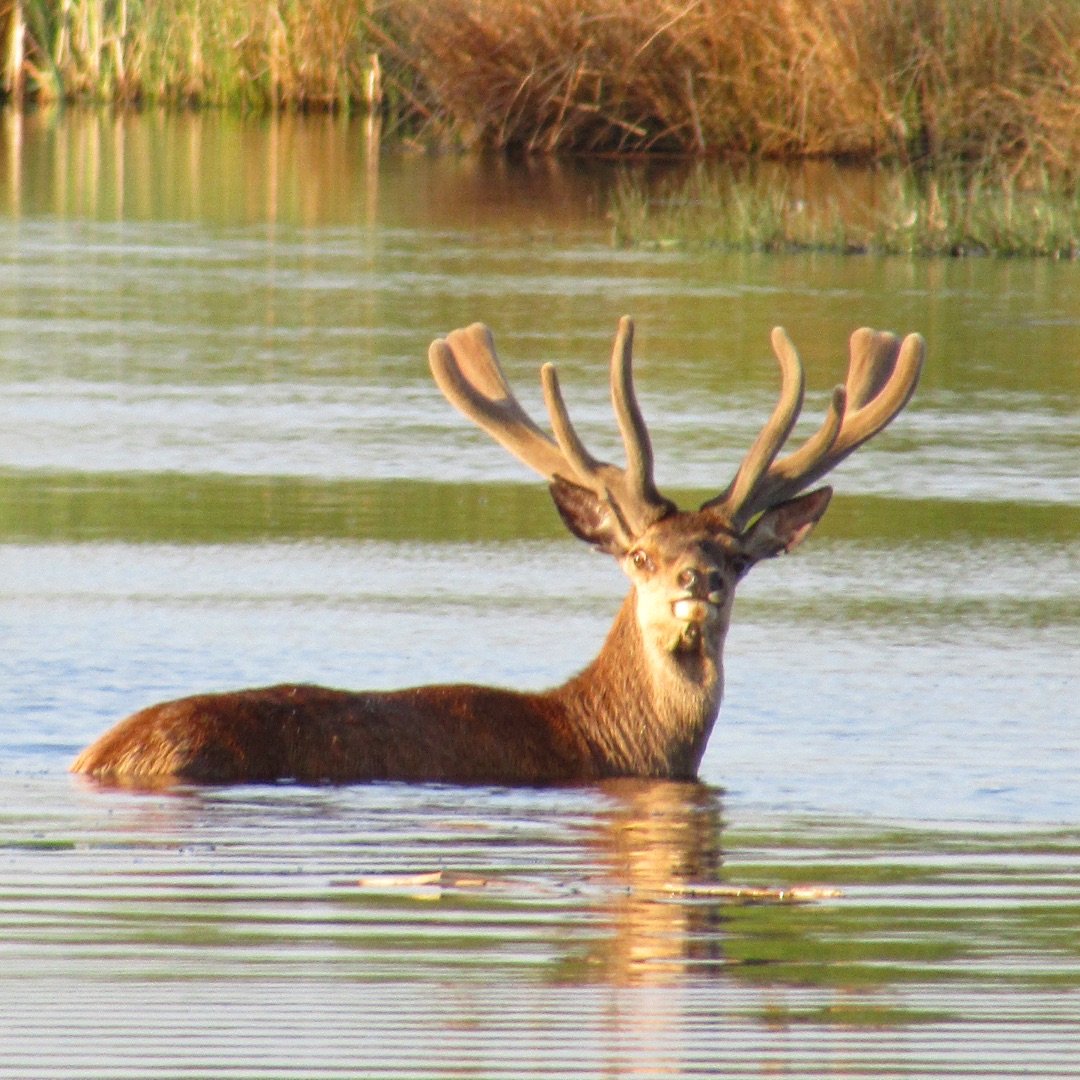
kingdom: Animalia
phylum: Chordata
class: Mammalia
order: Artiodactyla
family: Cervidae
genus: Cervus
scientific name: Cervus elaphus
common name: Krondyr
